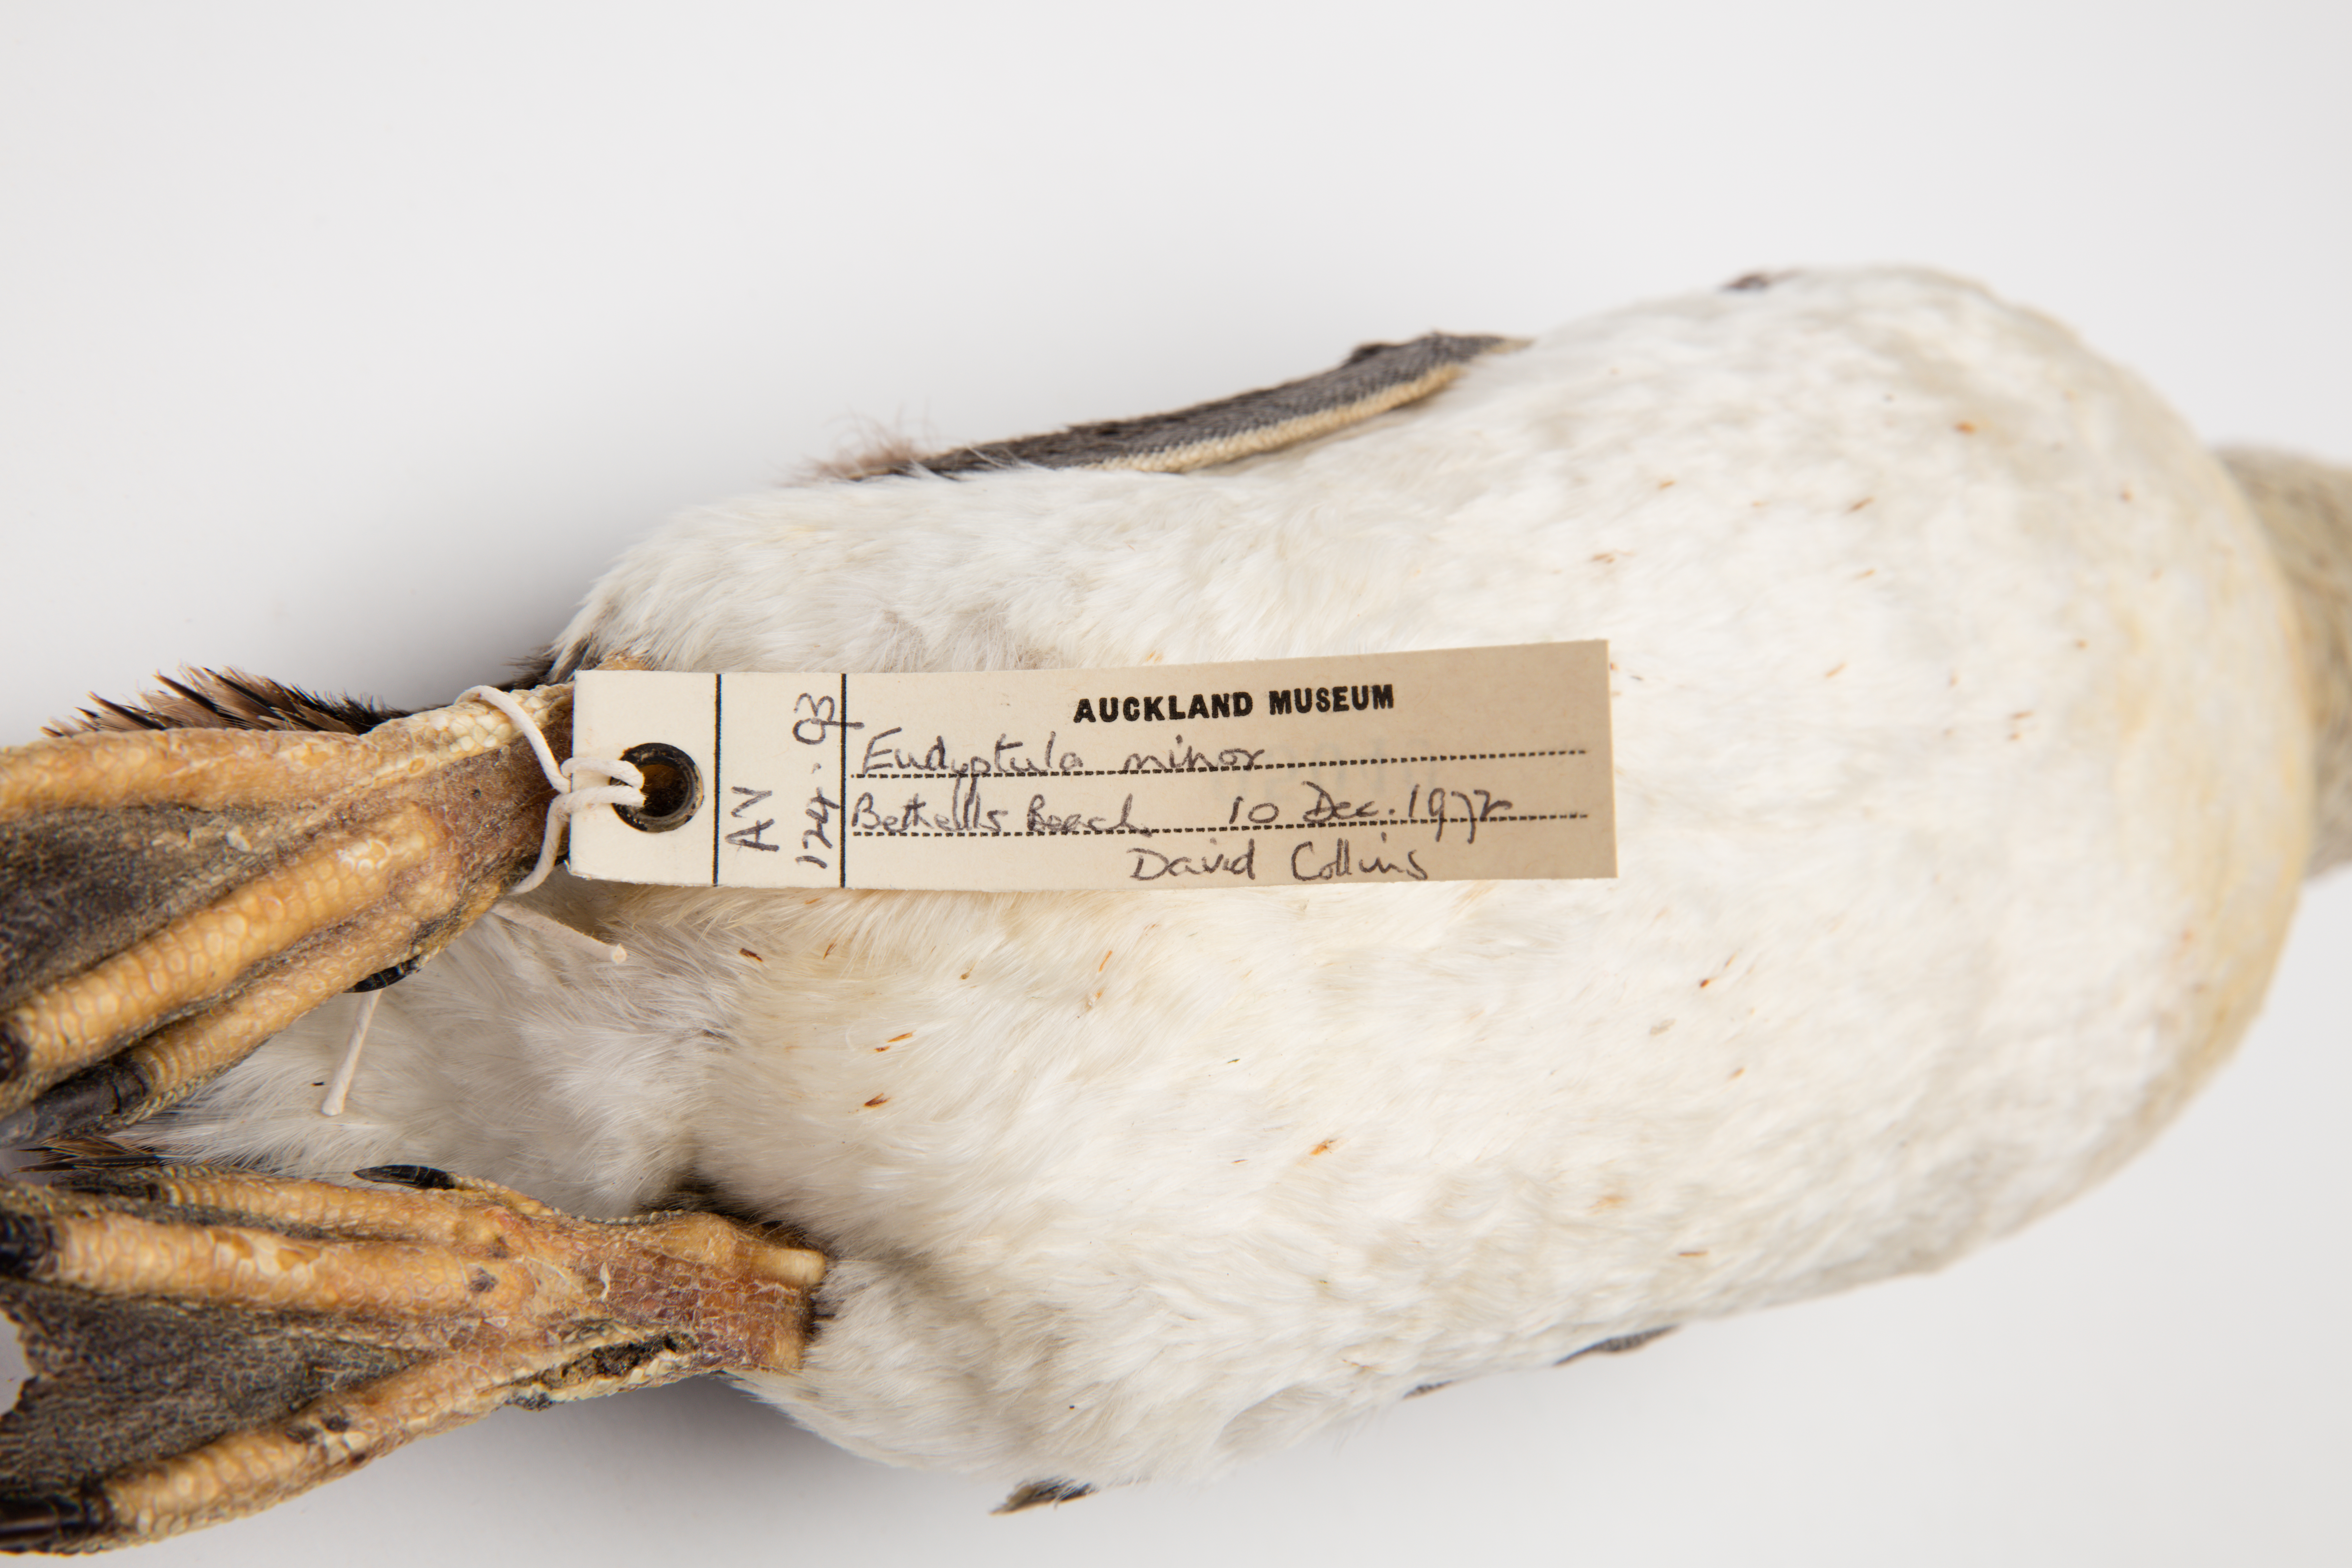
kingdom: Animalia
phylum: Chordata
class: Aves
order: Sphenisciformes
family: Spheniscidae
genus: Eudyptula
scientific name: Eudyptula minor
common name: Little penguin
